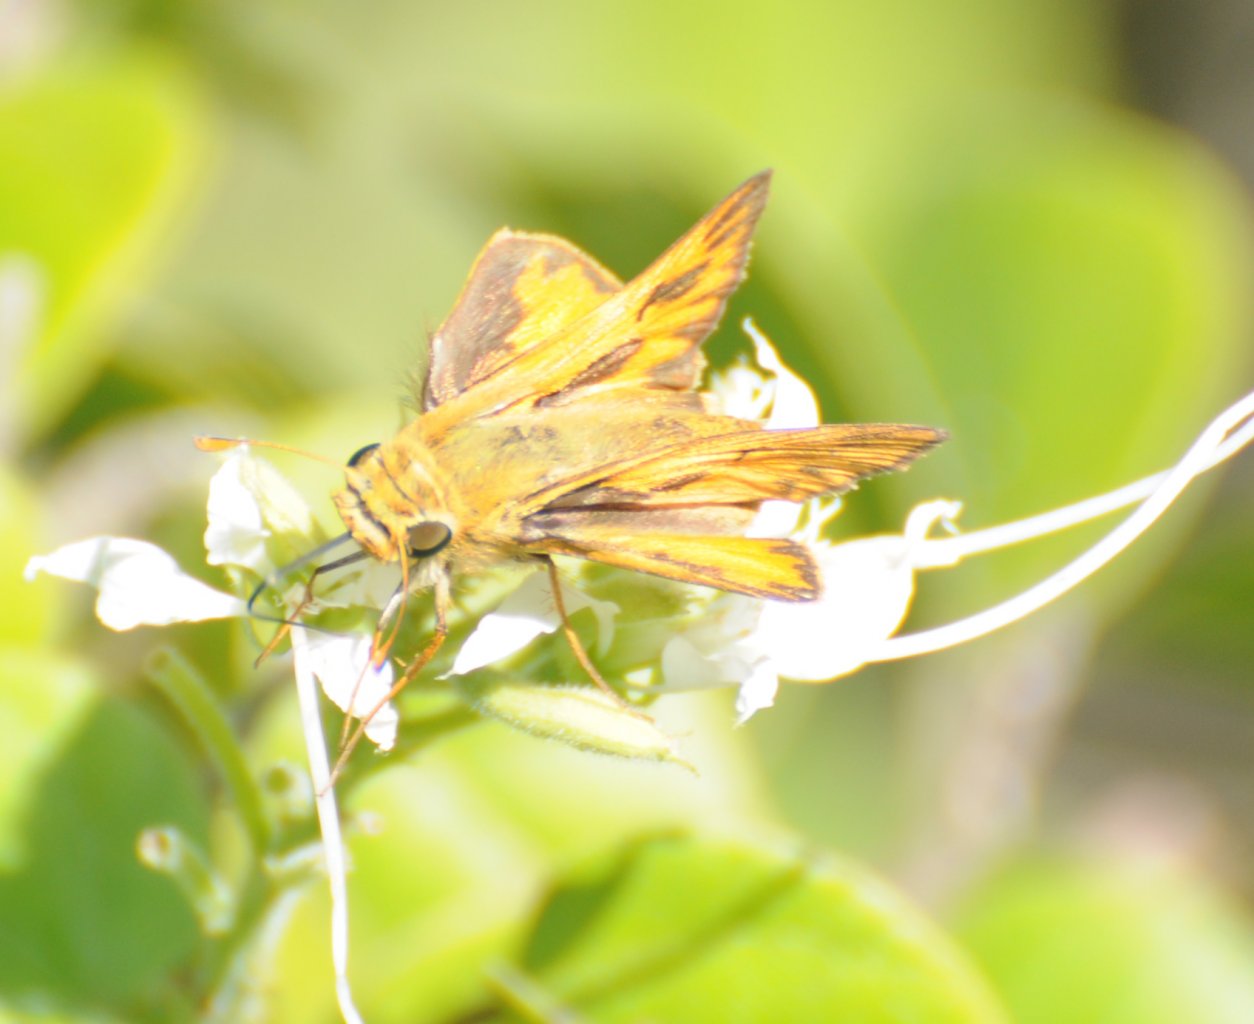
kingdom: Animalia
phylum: Arthropoda
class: Insecta
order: Lepidoptera
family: Hesperiidae
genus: Hylephila
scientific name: Hylephila phyleus
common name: Fiery Skipper
